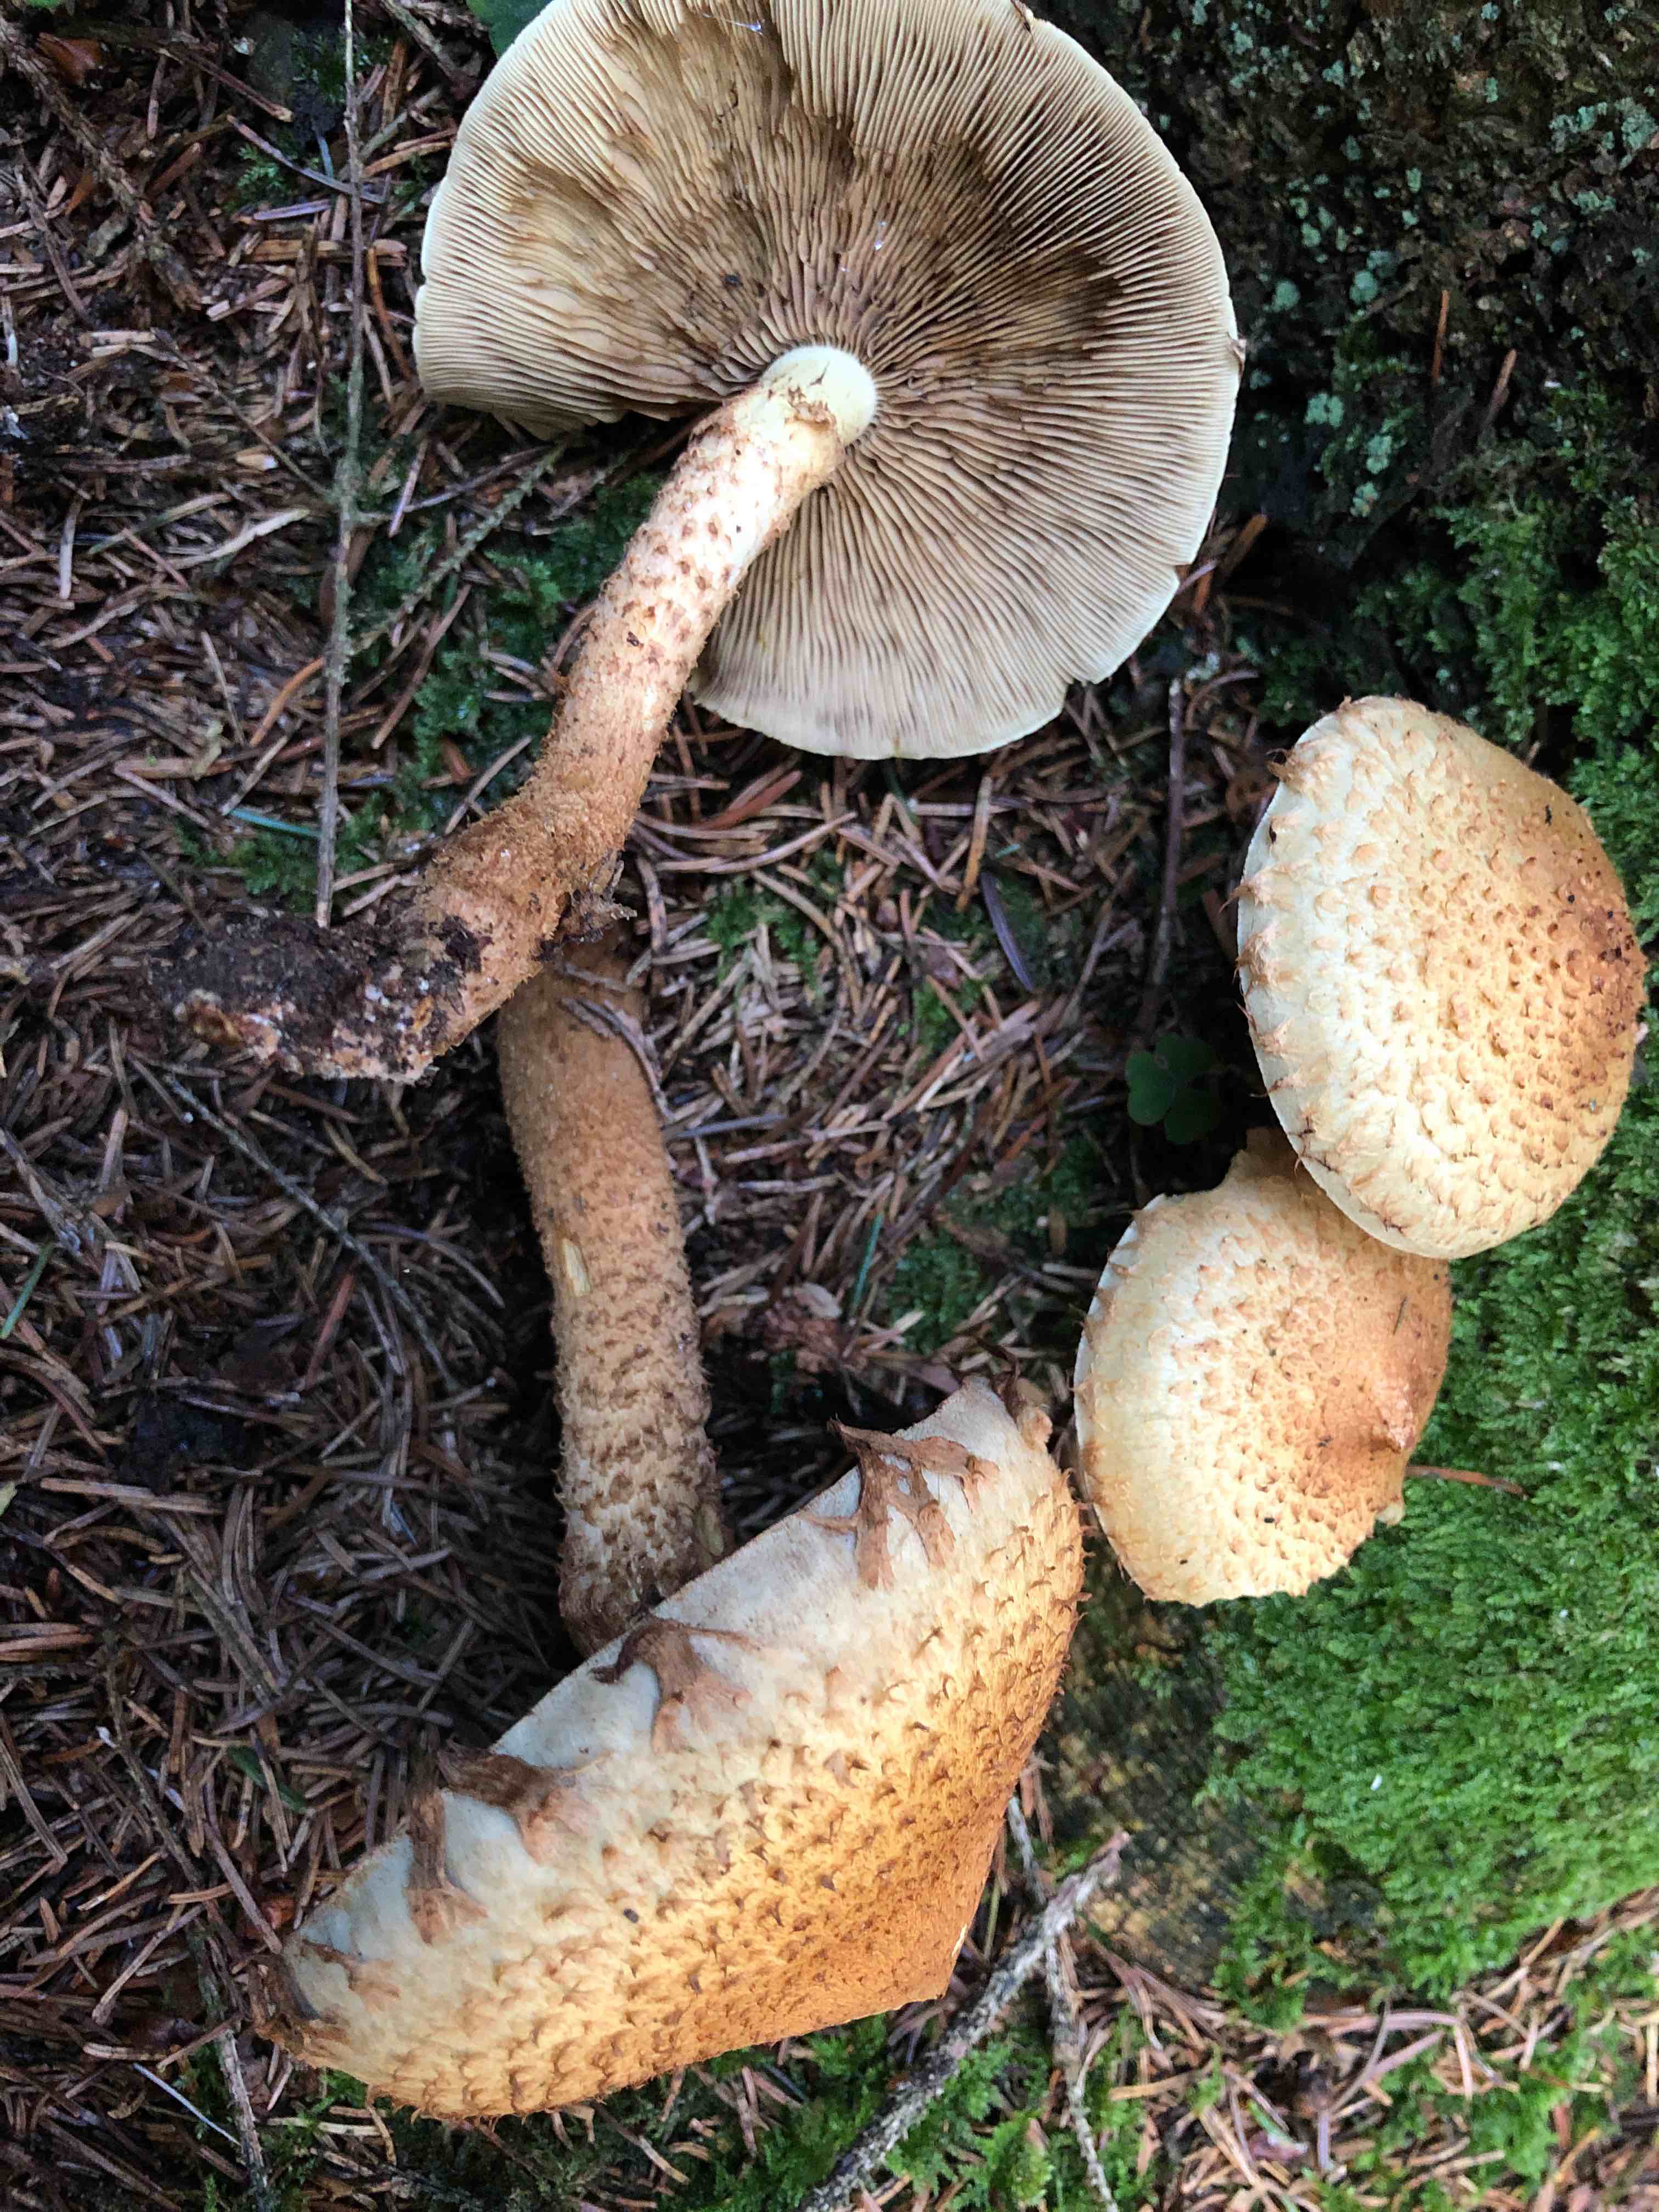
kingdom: Fungi
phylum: Basidiomycota
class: Agaricomycetes
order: Agaricales
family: Strophariaceae
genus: Pholiota
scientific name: Pholiota squarrosa
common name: krumskællet skælhat
